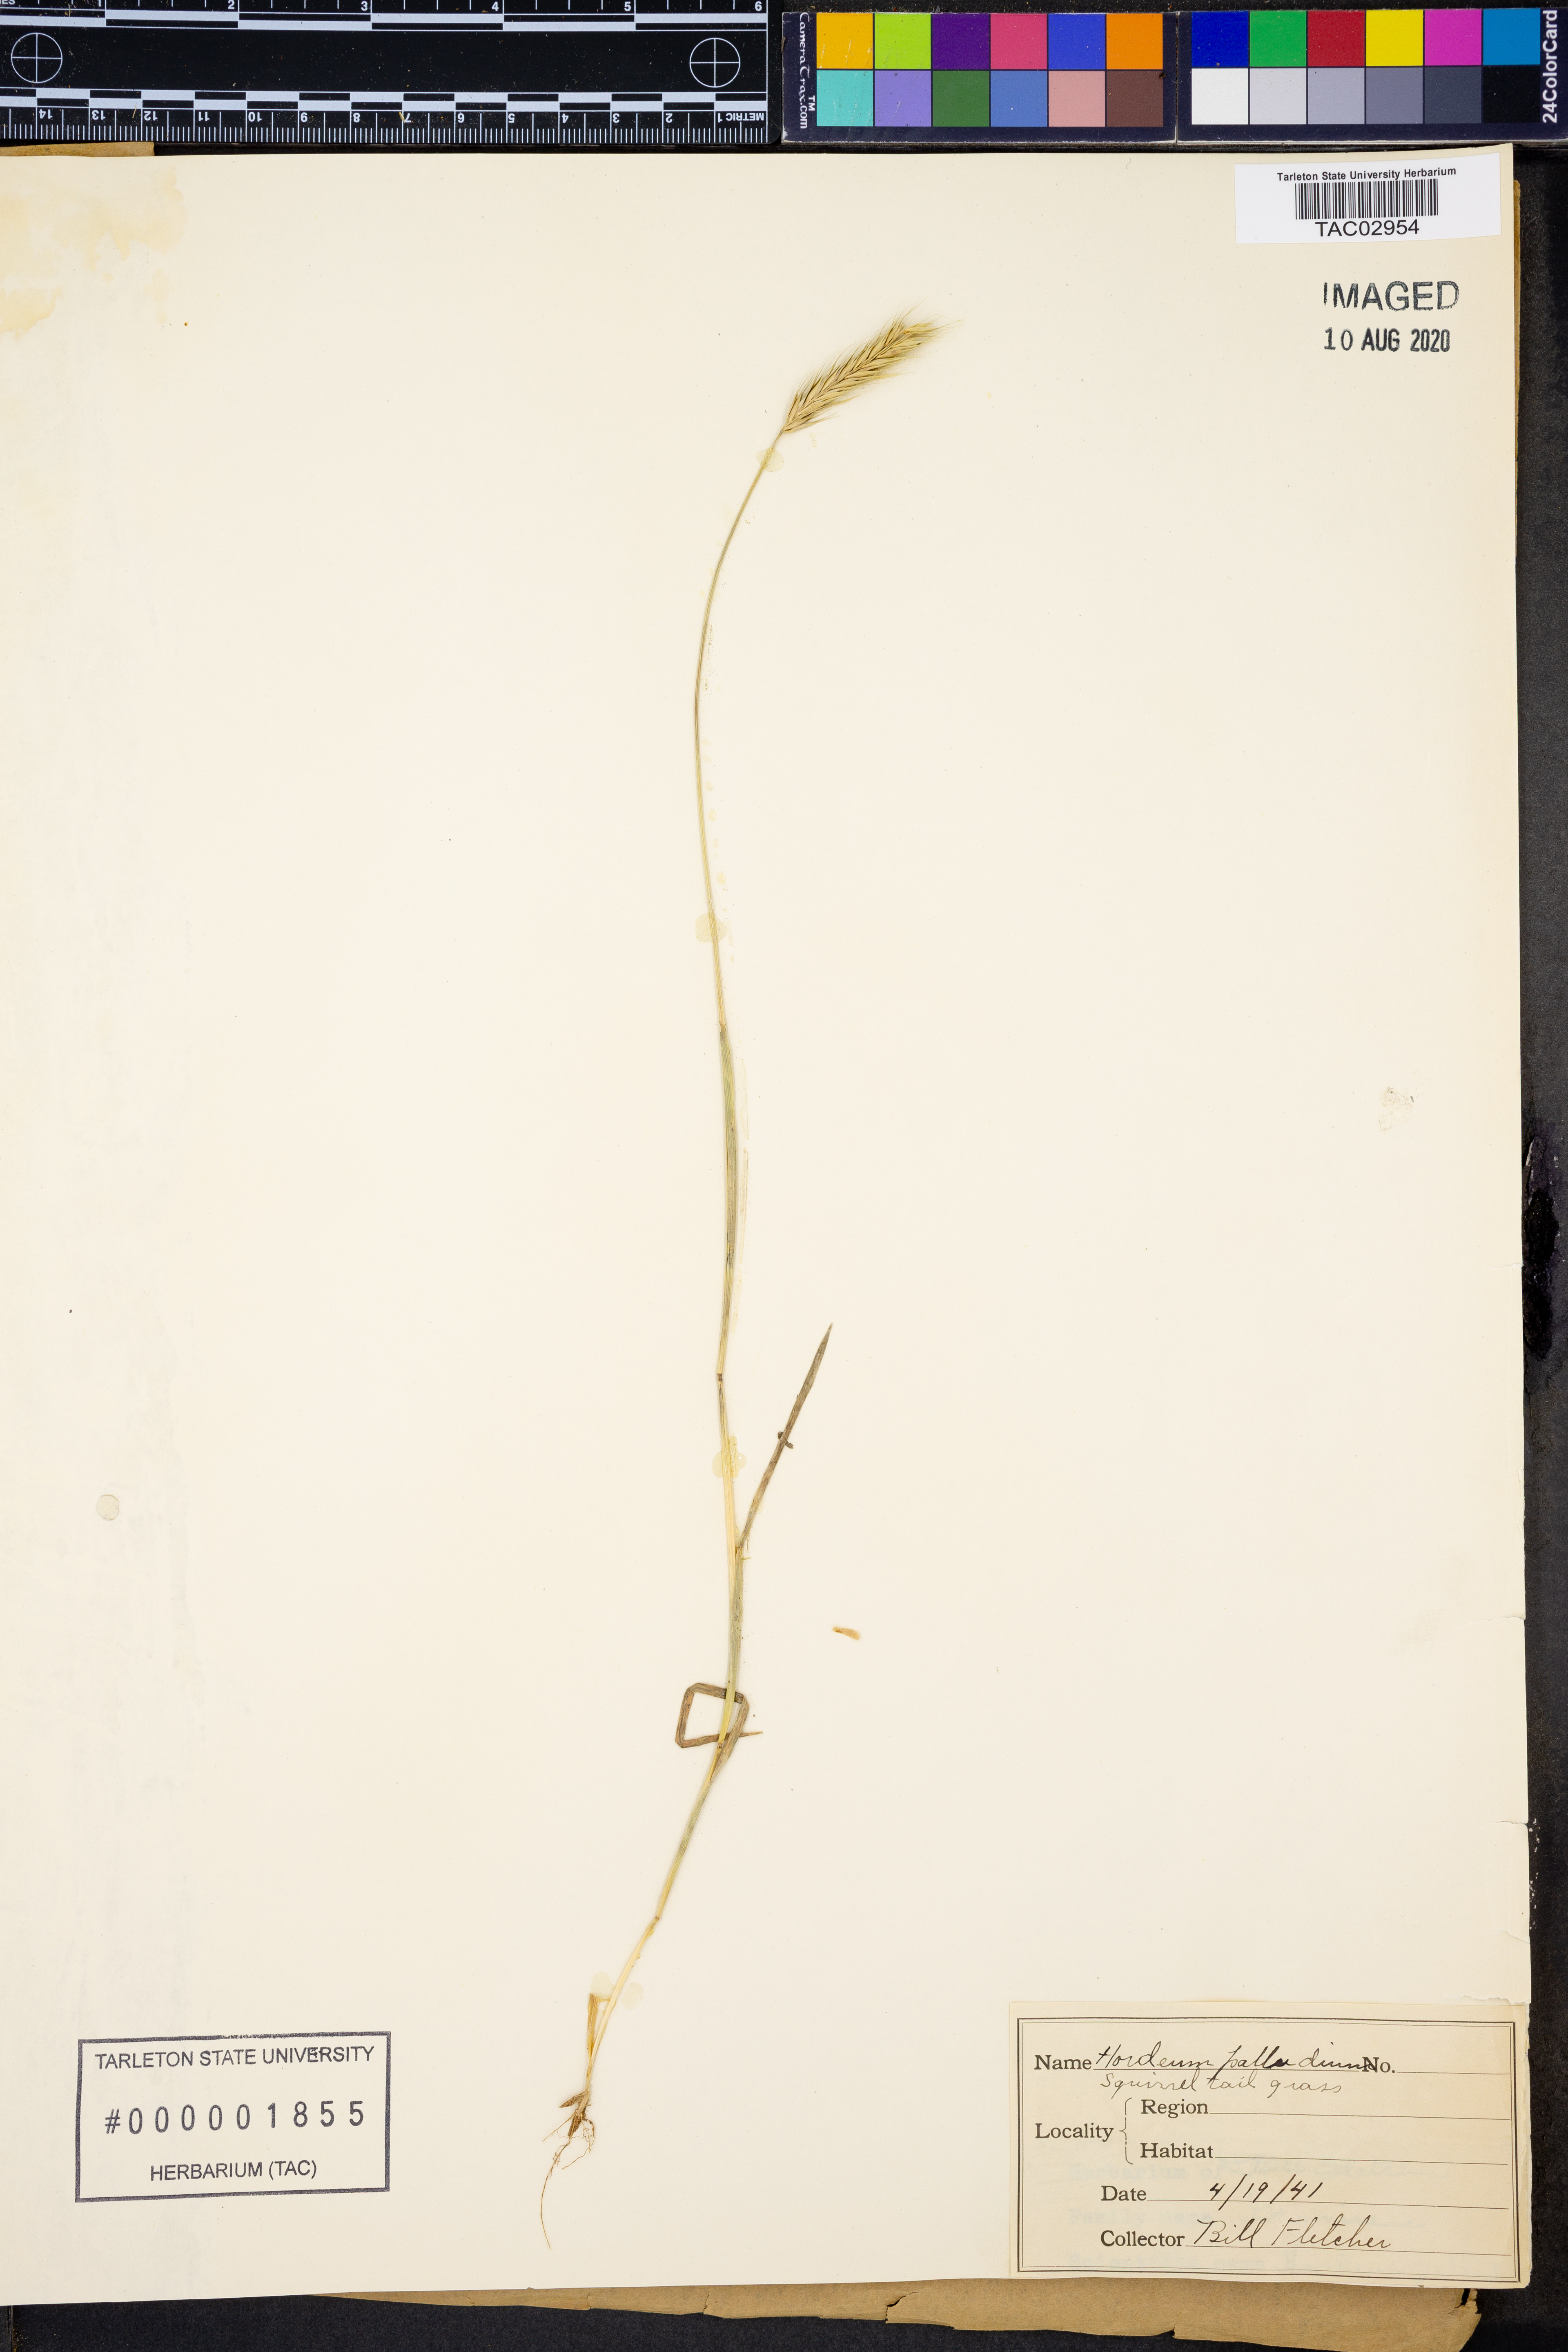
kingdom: Plantae
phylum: Tracheophyta
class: Liliopsida
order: Poales
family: Poaceae
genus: Hordeum
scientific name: Hordeum
